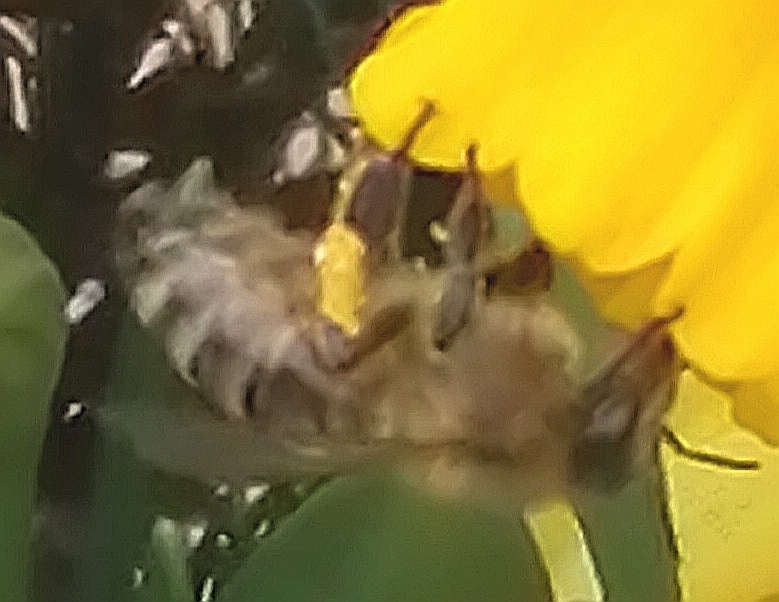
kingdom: Animalia
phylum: Arthropoda
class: Insecta
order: Hymenoptera
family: Apidae
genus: Apis
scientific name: Apis mellifera
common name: Honningbi
